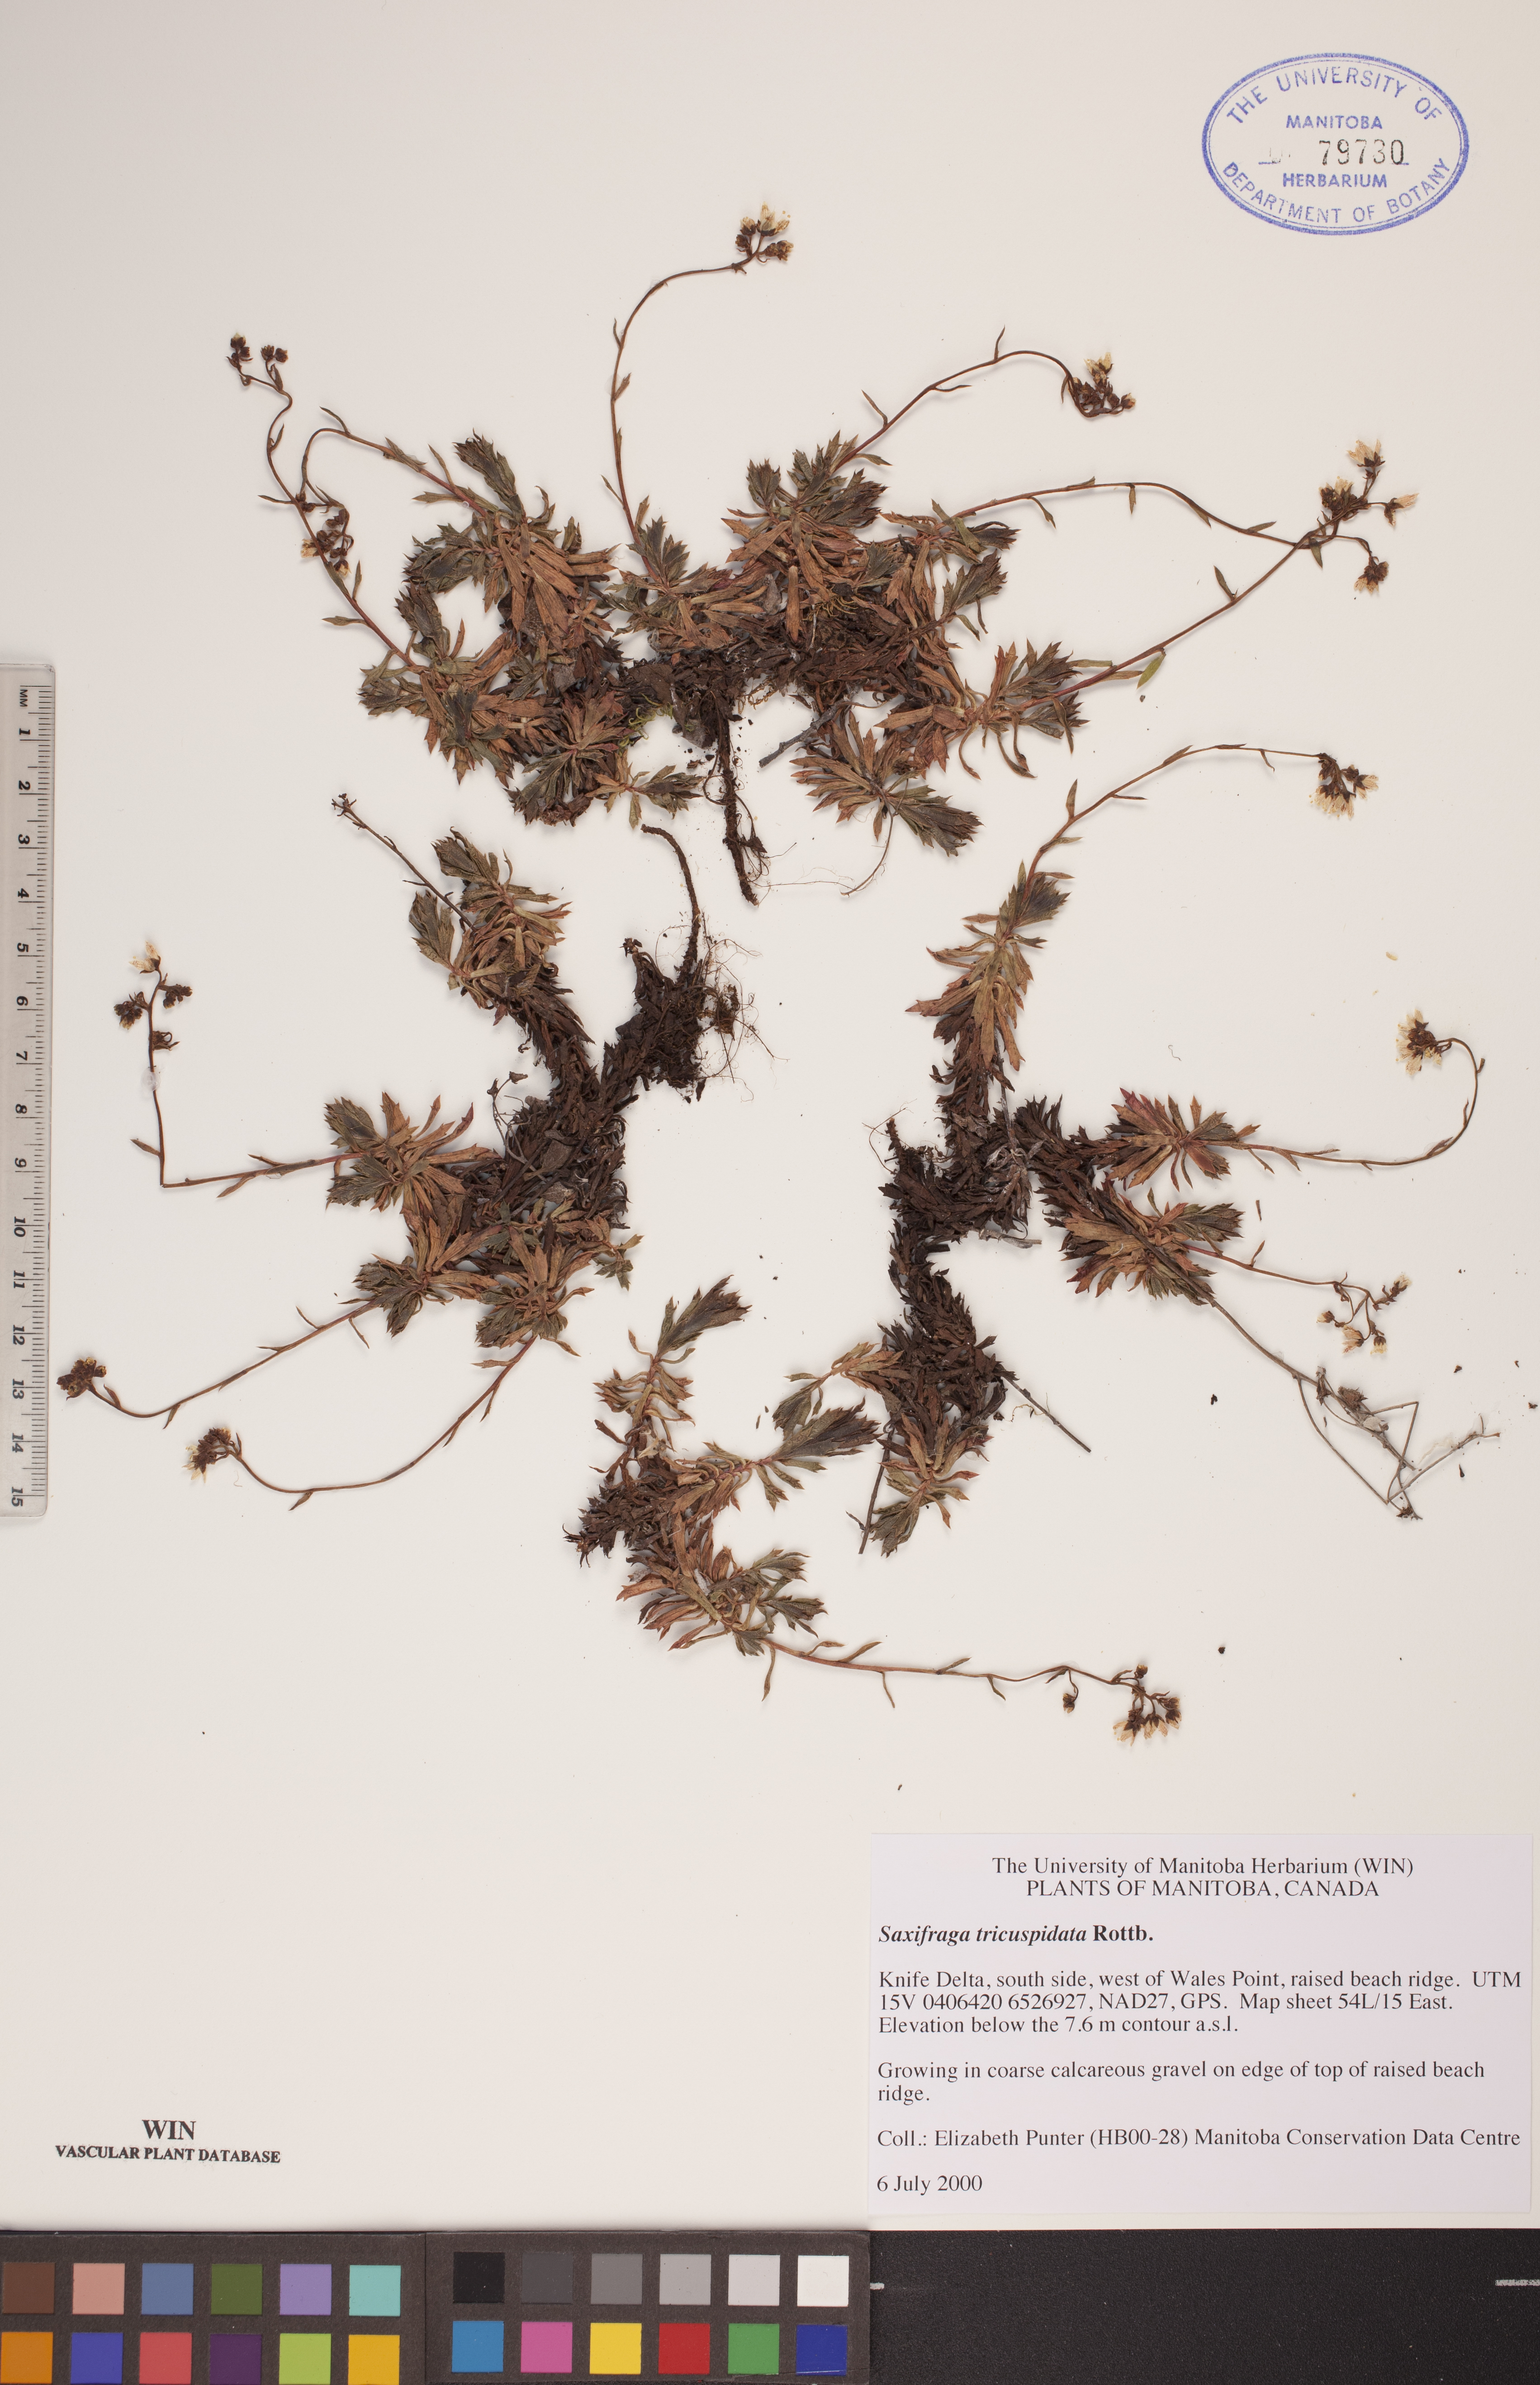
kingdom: Plantae
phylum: Tracheophyta
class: Magnoliopsida
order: Saxifragales
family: Saxifragaceae
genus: Saxifraga
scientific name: Saxifraga tricuspidata
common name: Prickly saxifrage
